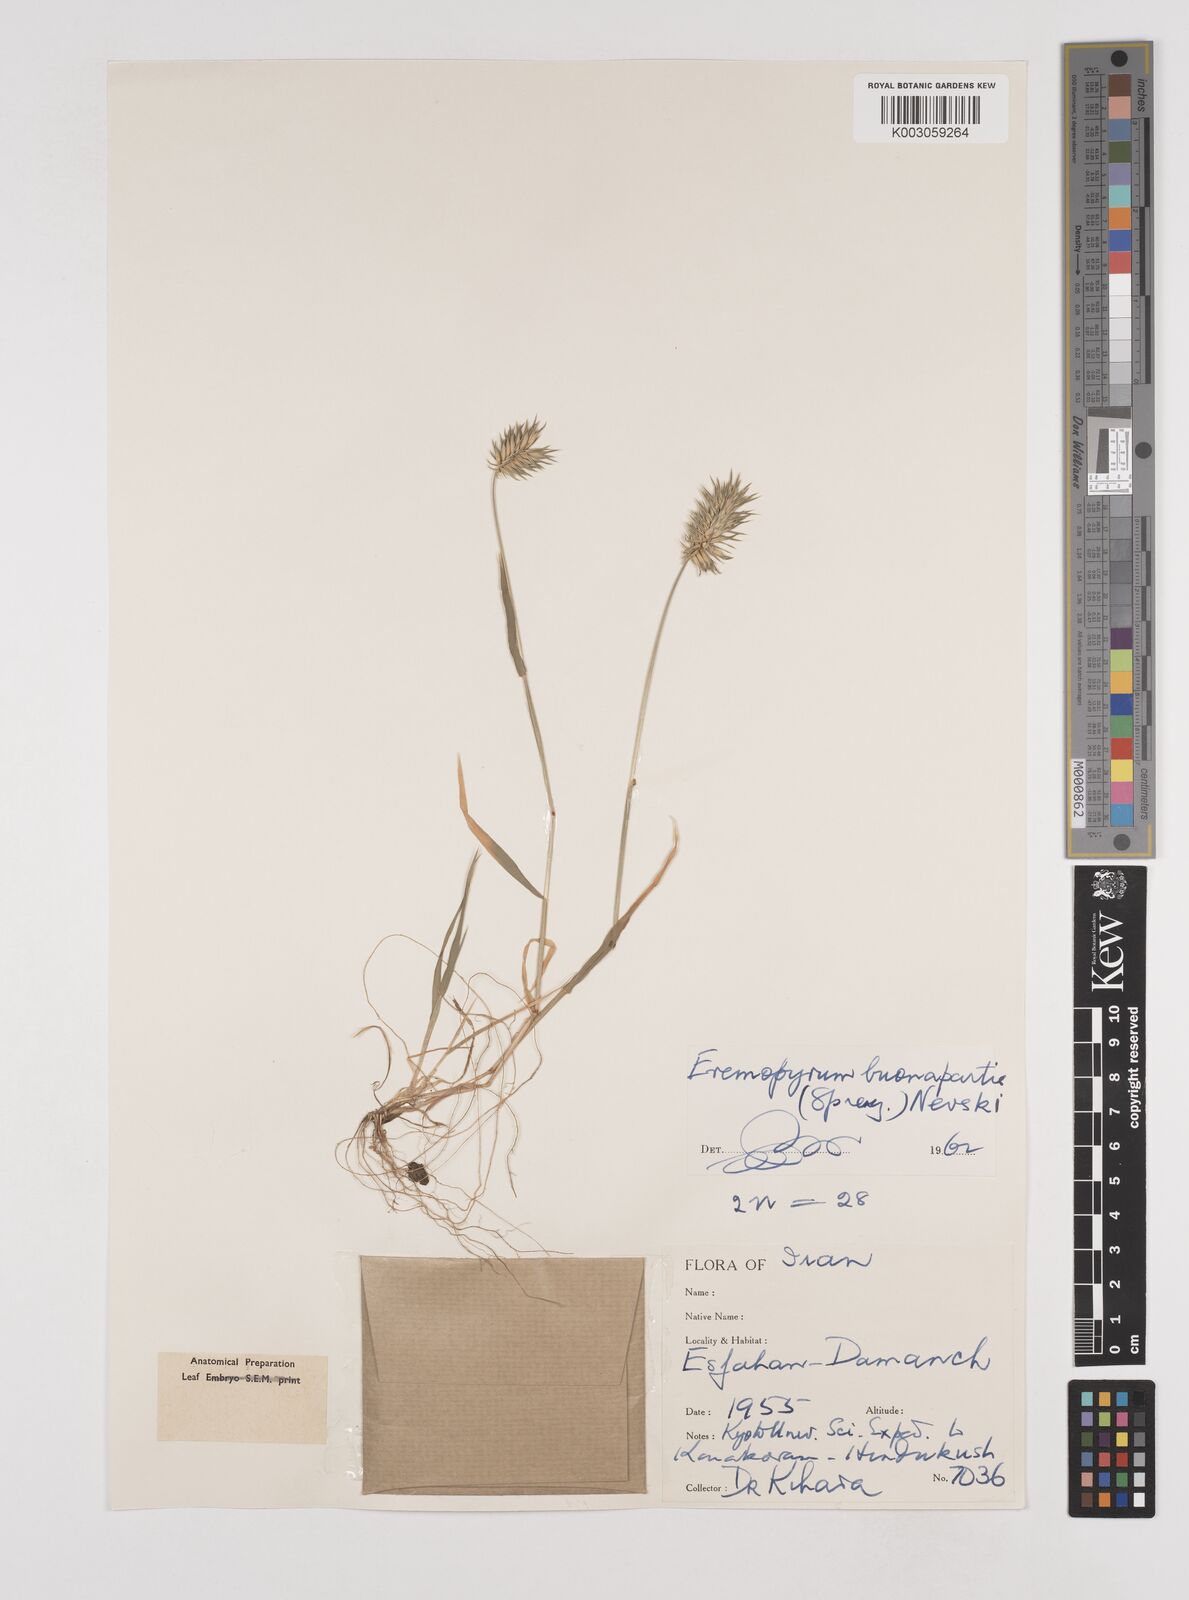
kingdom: Plantae
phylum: Tracheophyta
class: Liliopsida
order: Poales
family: Poaceae
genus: Eremopyrum
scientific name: Eremopyrum bonaepartis
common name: Tapertip false wheatgrass
